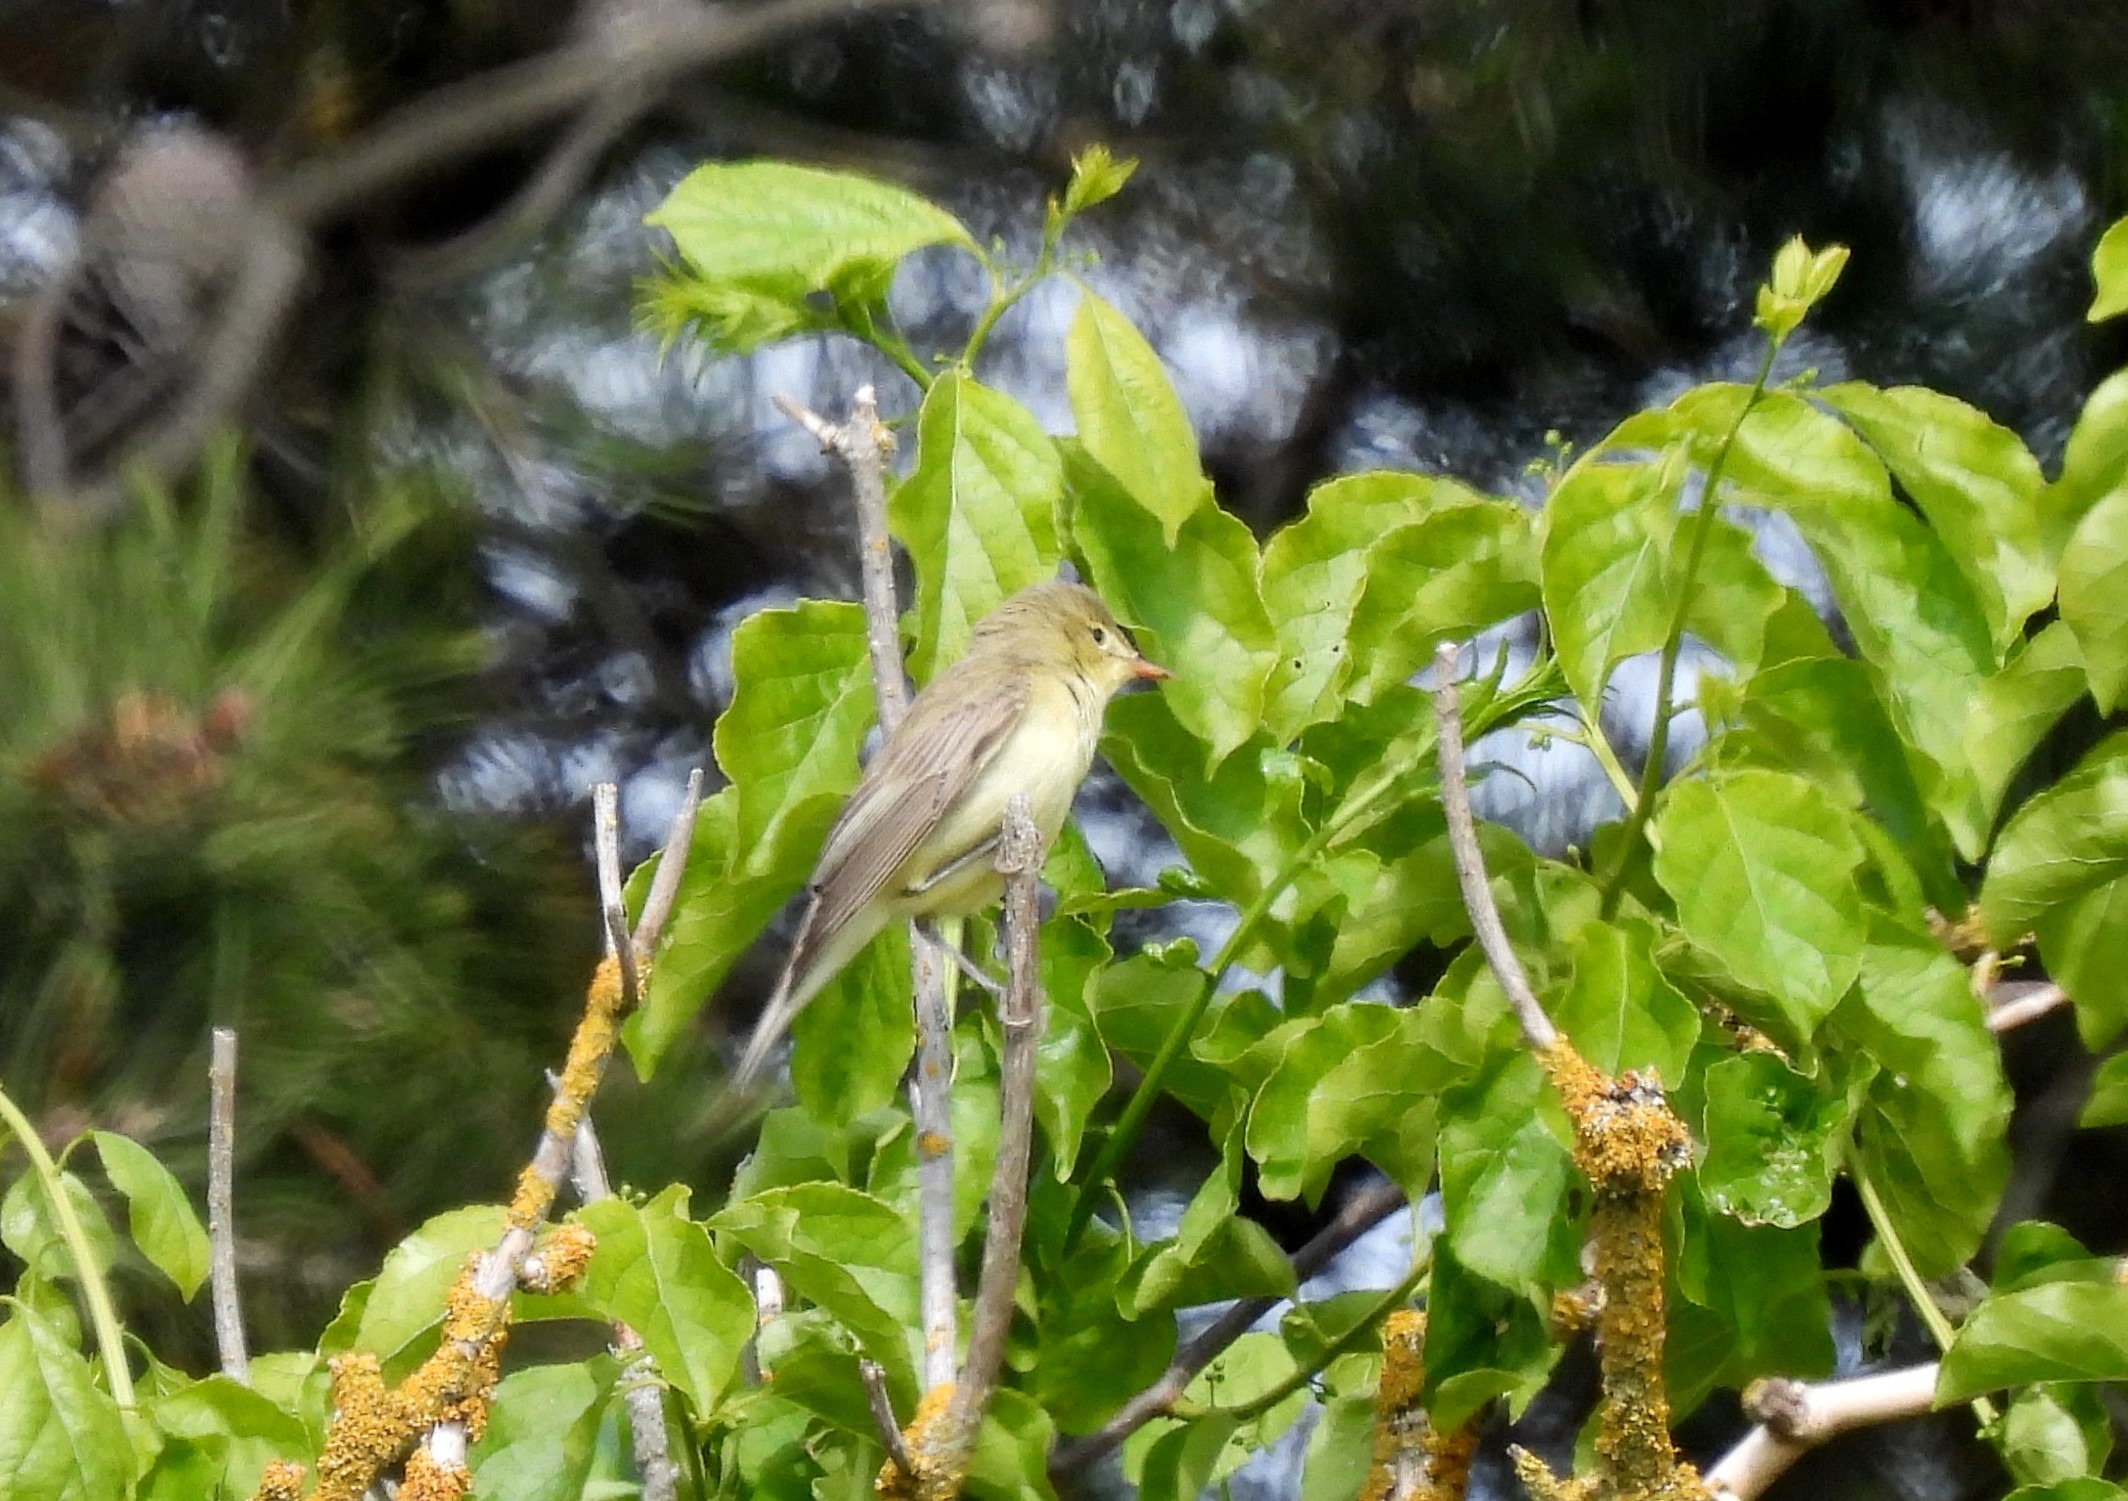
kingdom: Animalia
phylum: Chordata
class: Aves
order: Passeriformes
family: Acrocephalidae
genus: Hippolais
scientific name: Hippolais icterina
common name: Gulbug
